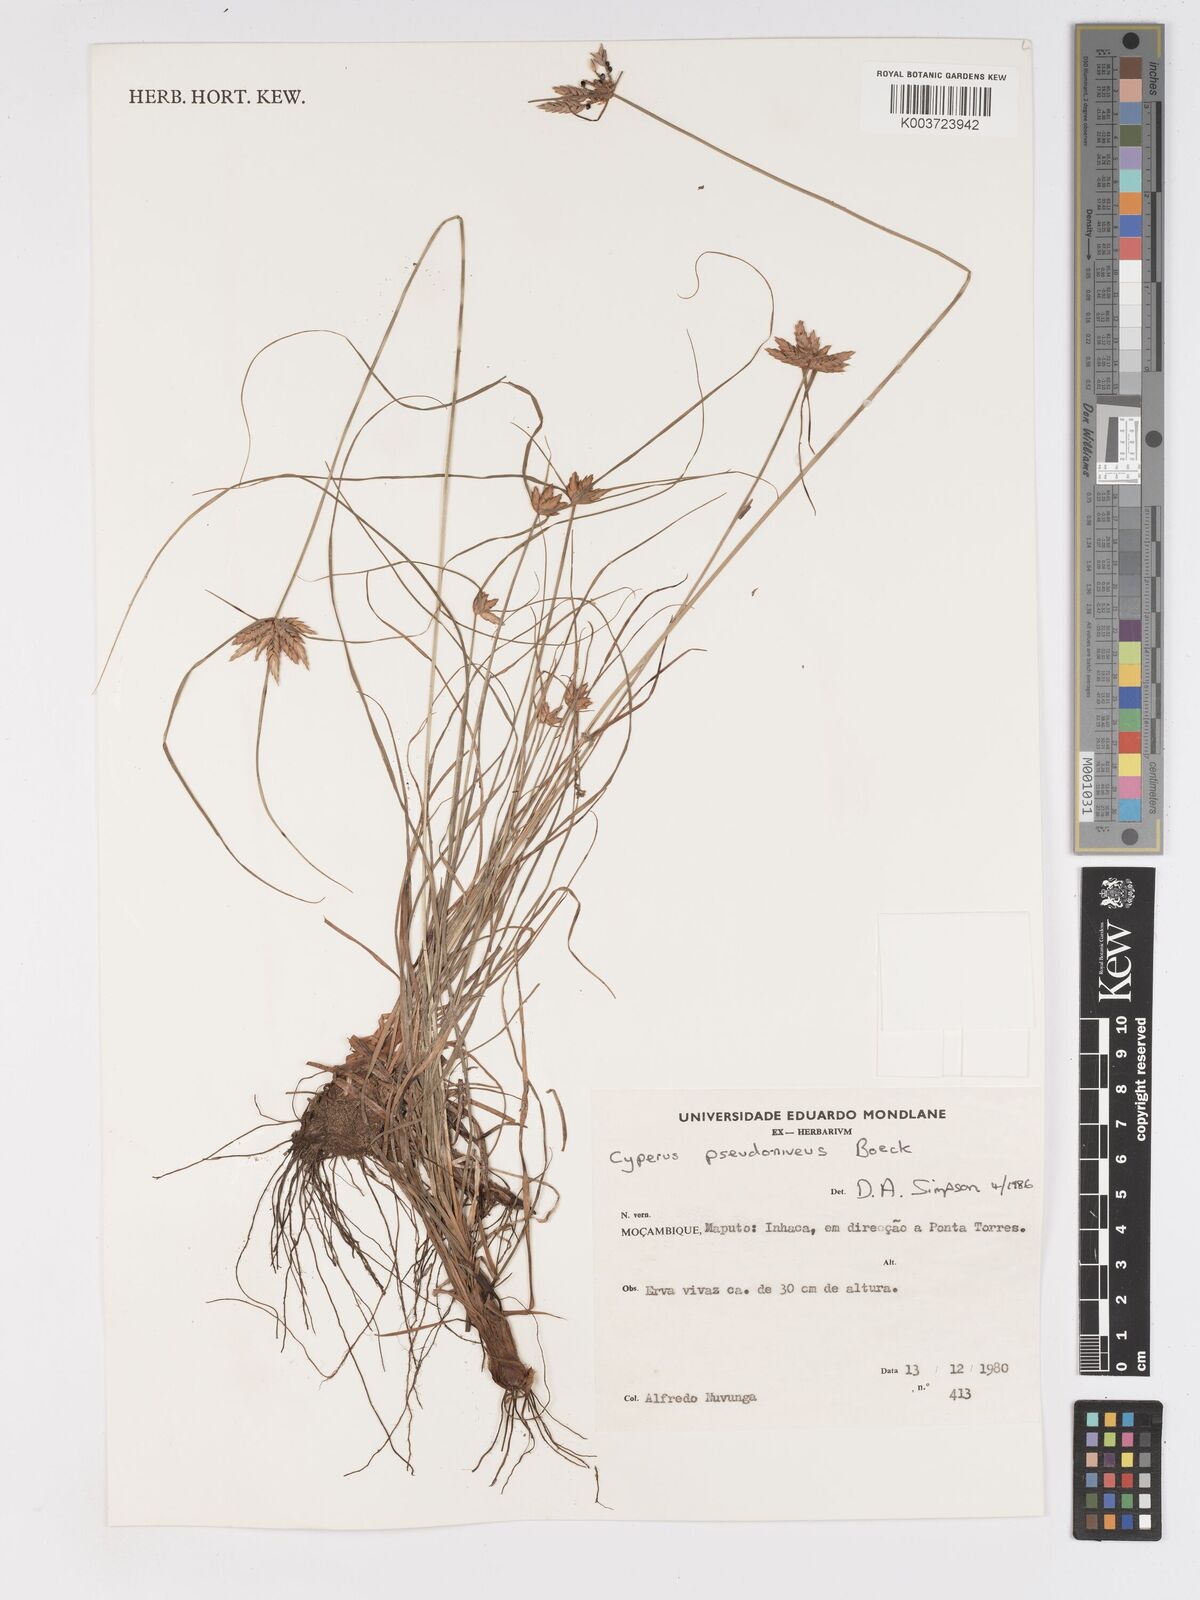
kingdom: Plantae
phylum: Tracheophyta
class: Liliopsida
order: Poales
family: Cyperaceae
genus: Cyperus
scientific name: Cyperus margaritaceus
